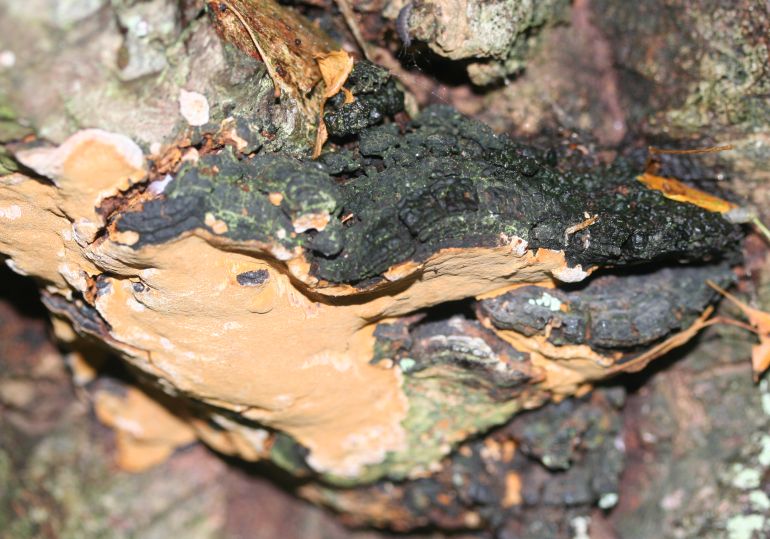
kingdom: Fungi
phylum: Basidiomycota
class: Agaricomycetes
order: Hymenochaetales
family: Hymenochaetaceae
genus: Phellinus
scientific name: Phellinus tremulae
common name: aspe-ildporesvamp
